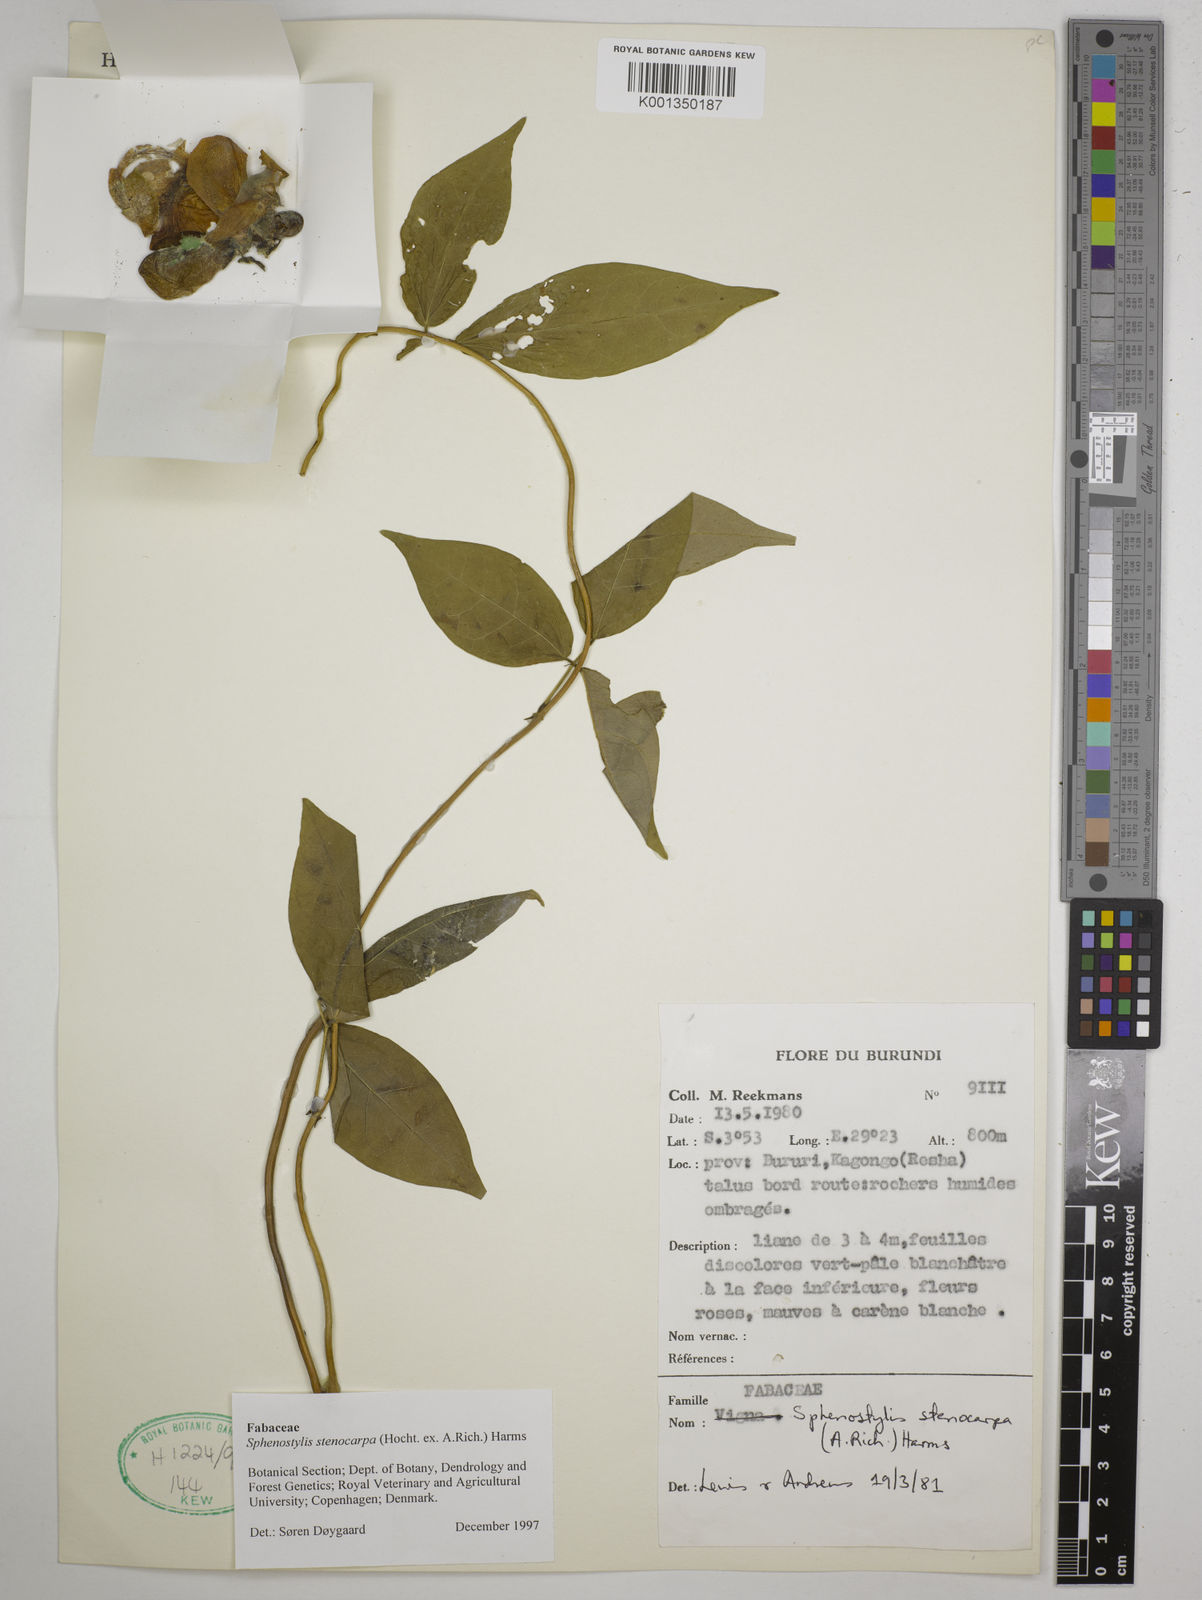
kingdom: Plantae
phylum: Tracheophyta
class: Magnoliopsida
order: Fabales
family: Fabaceae
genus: Sphenostylis
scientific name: Sphenostylis stenocarpa
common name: Yam-pea
